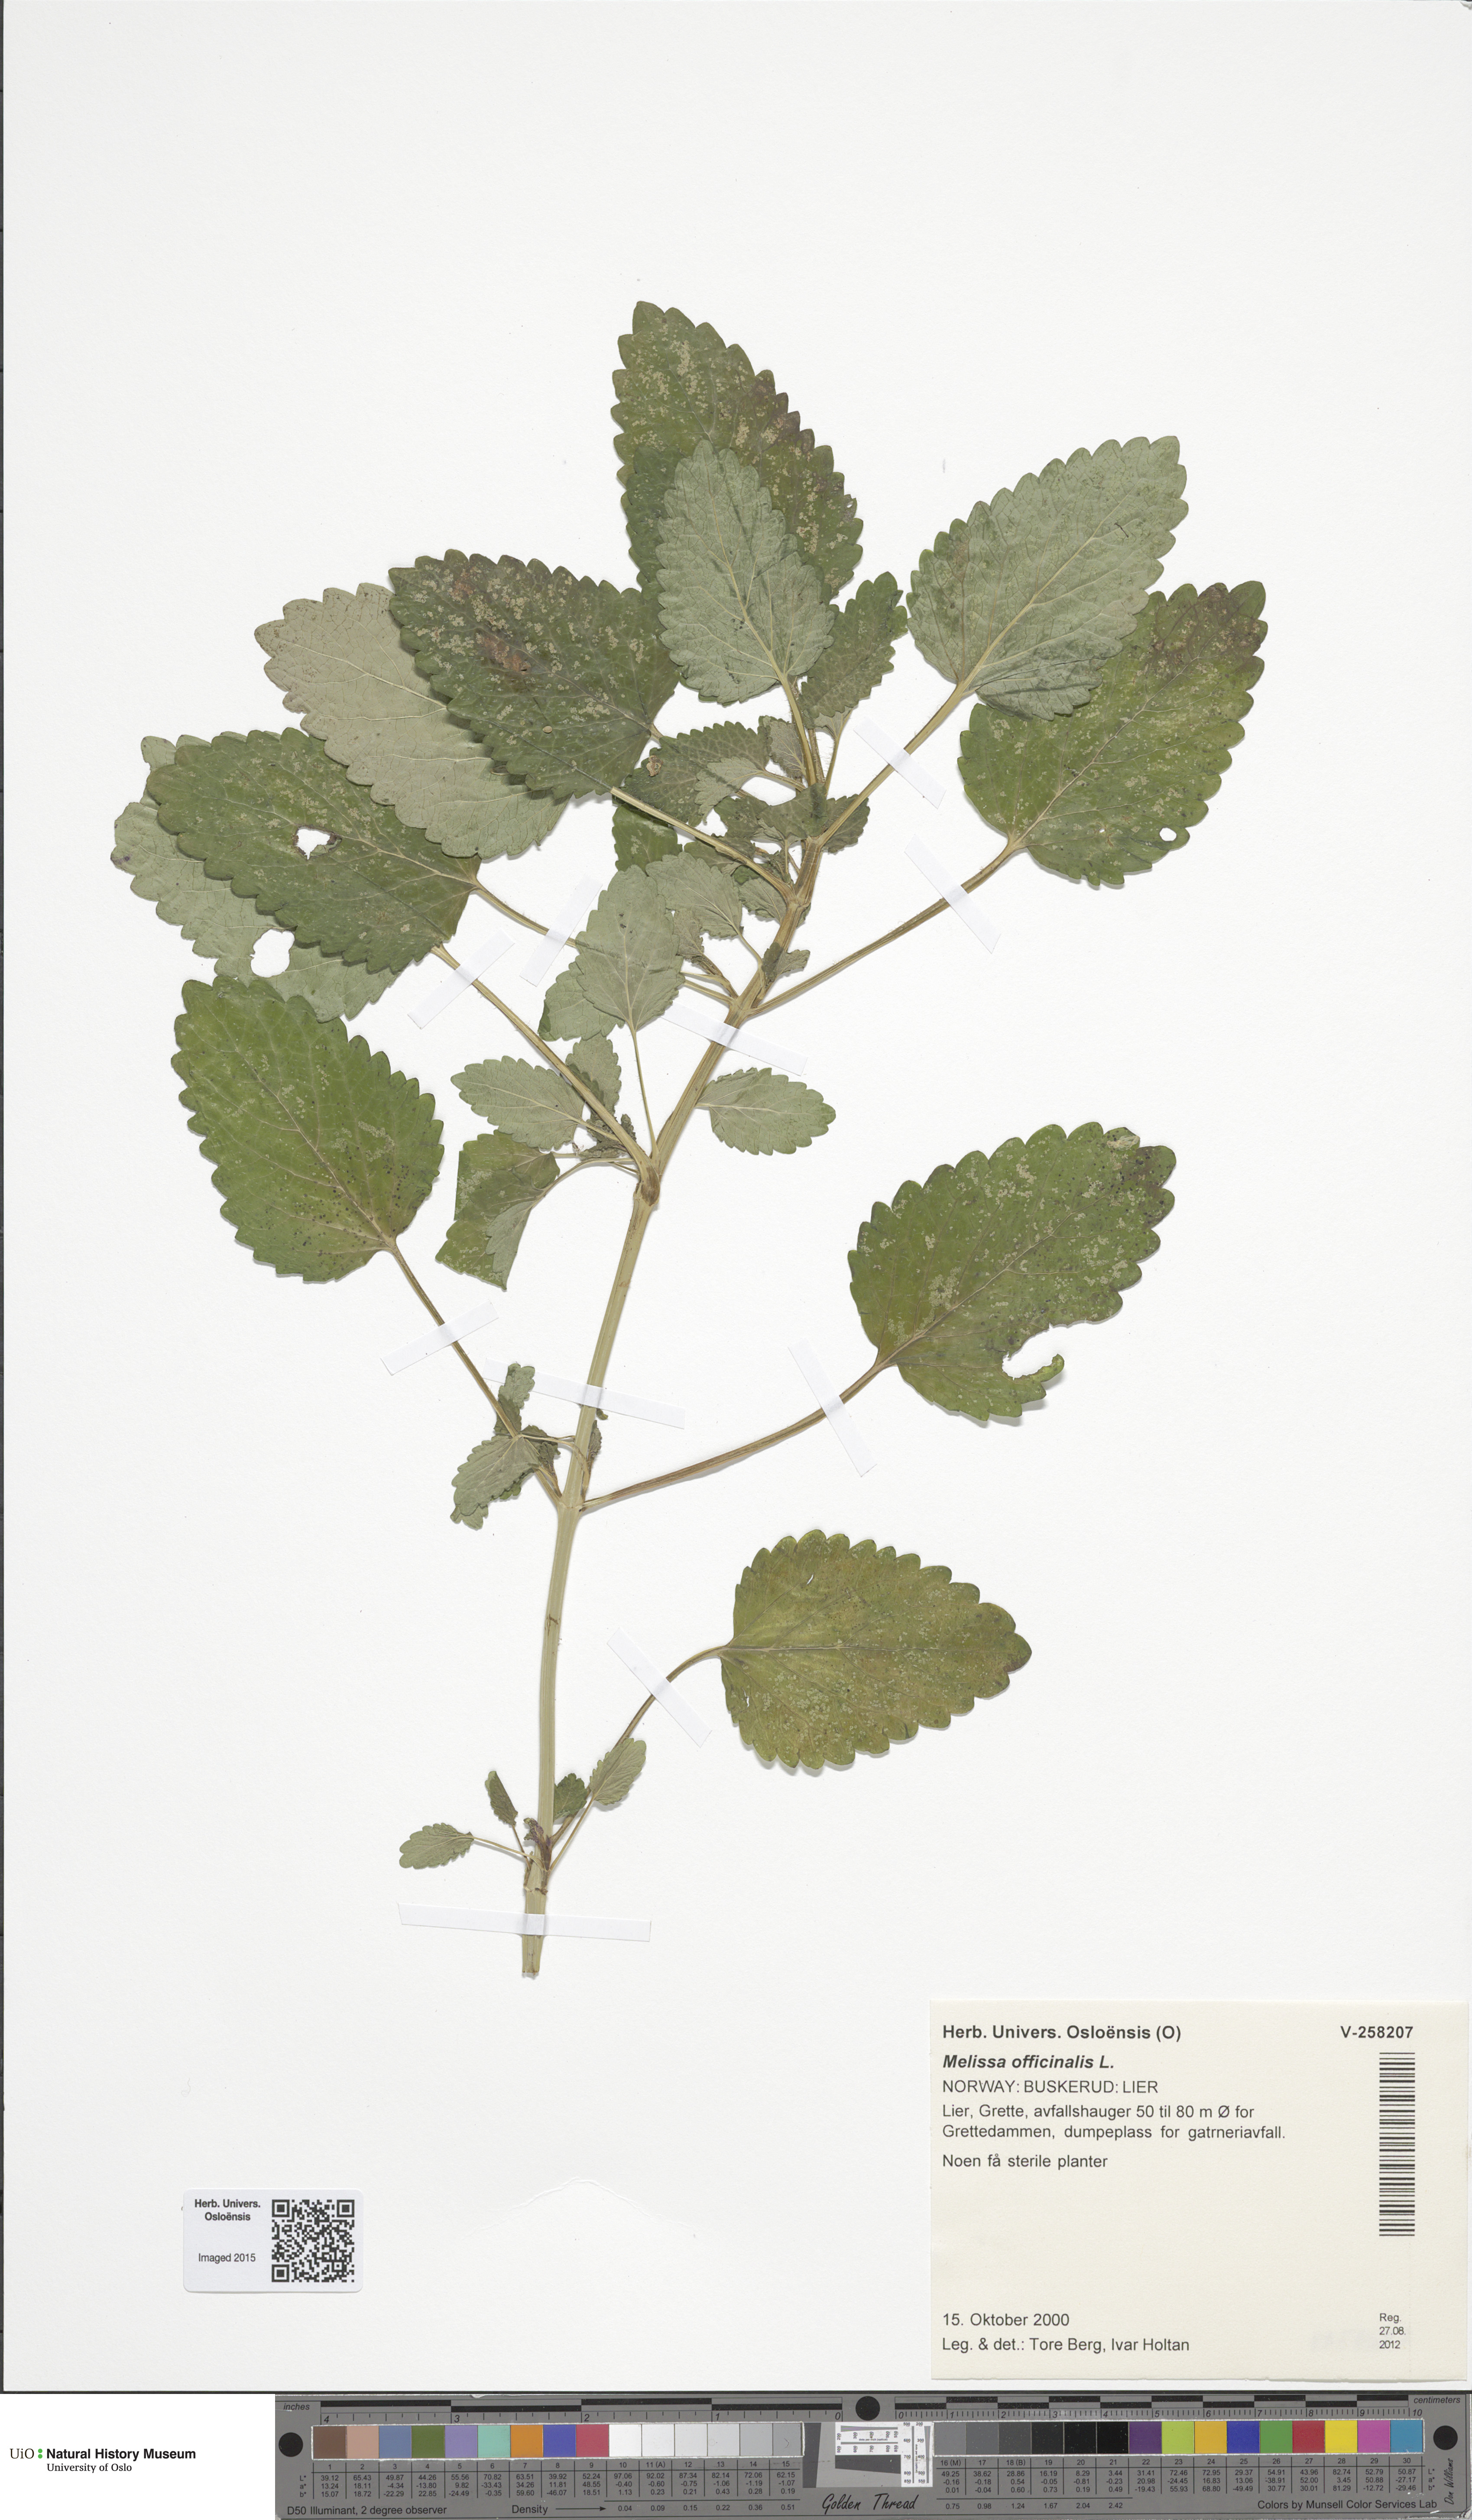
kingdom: Plantae
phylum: Tracheophyta
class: Magnoliopsida
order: Lamiales
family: Lamiaceae
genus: Melissa
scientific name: Melissa officinalis
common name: Balm
